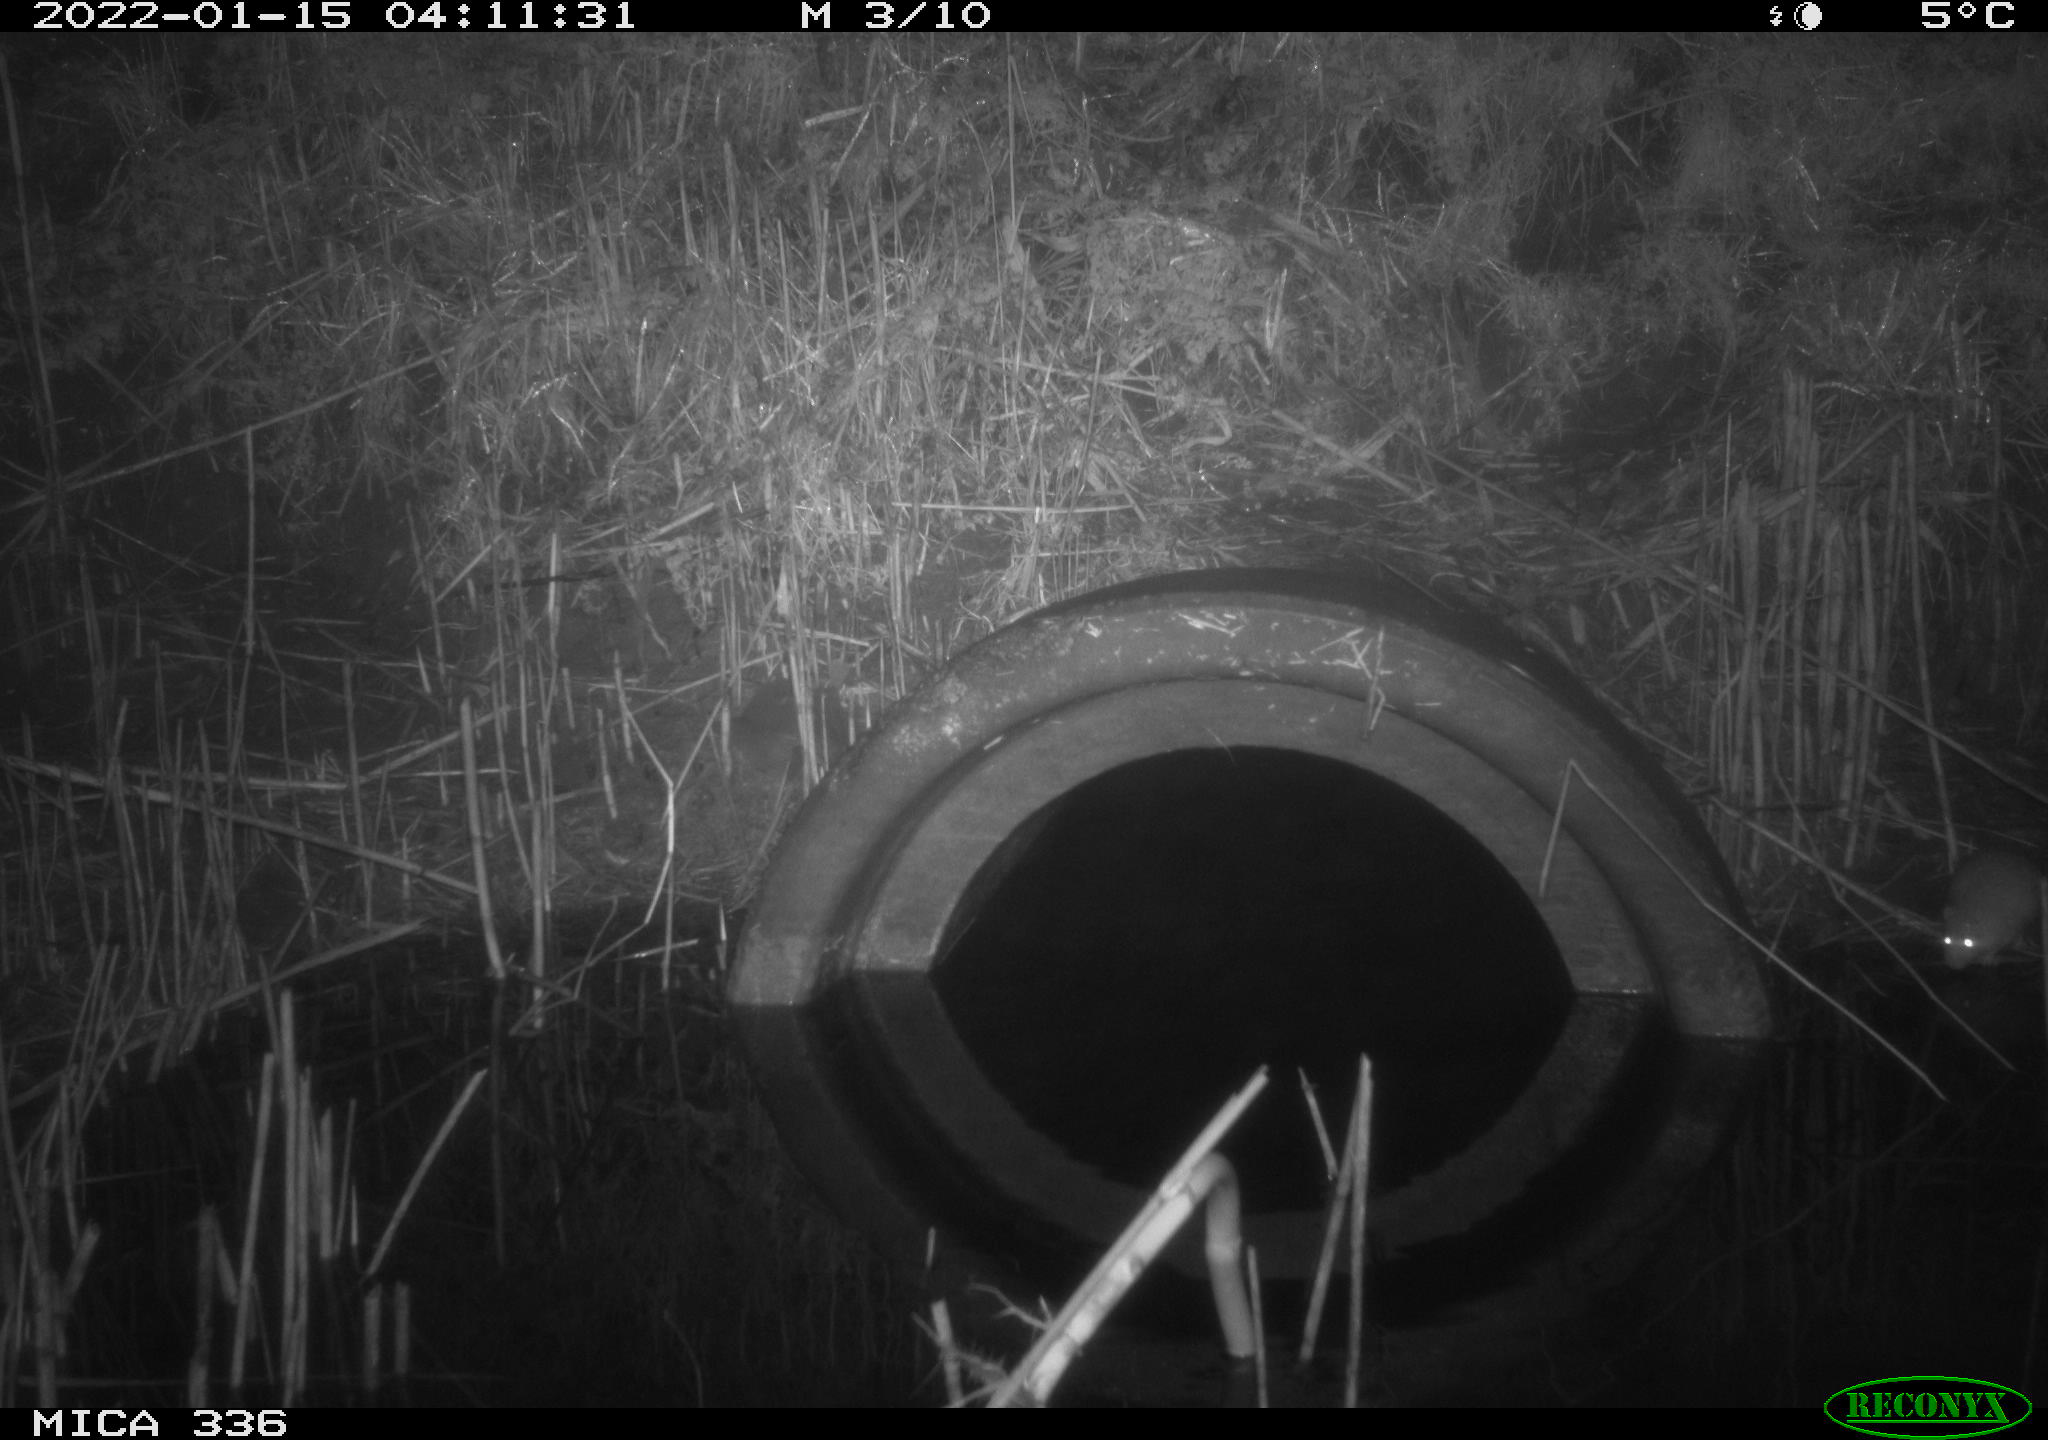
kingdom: Animalia
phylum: Chordata
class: Mammalia
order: Rodentia
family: Muridae
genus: Rattus
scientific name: Rattus norvegicus
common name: Brown rat
